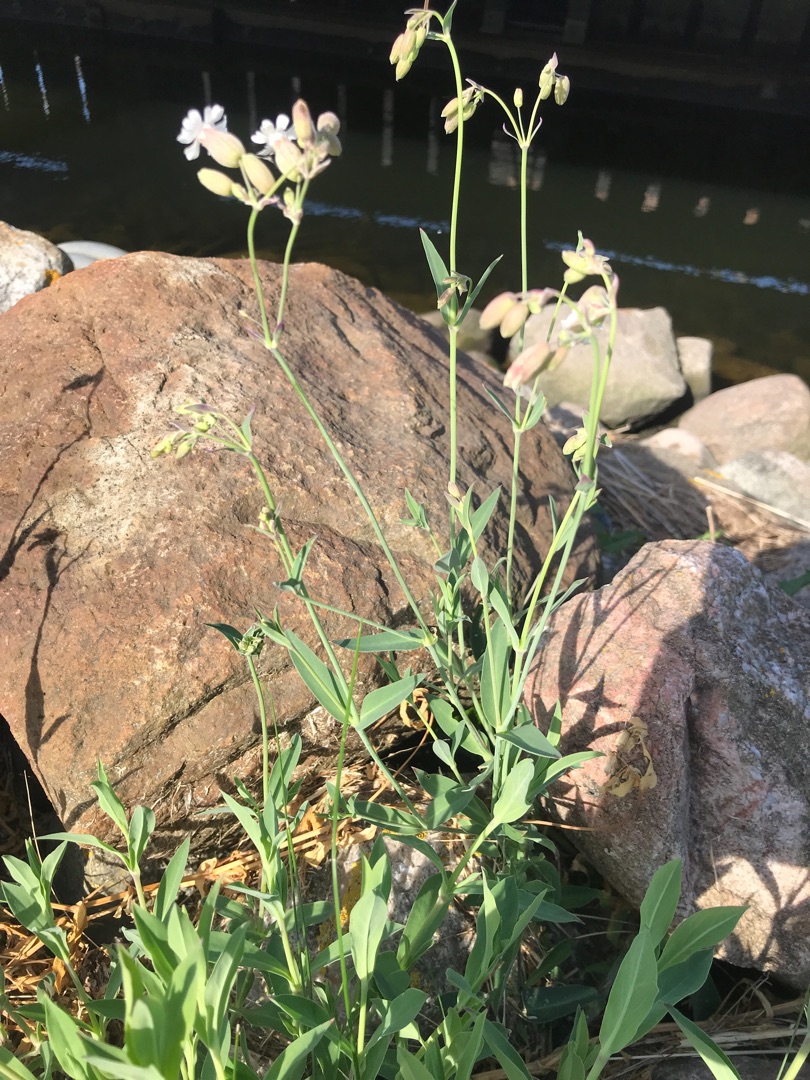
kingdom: Plantae
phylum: Tracheophyta
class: Magnoliopsida
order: Caryophyllales
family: Caryophyllaceae
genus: Silene
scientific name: Silene vulgaris
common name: Blæresmælde
